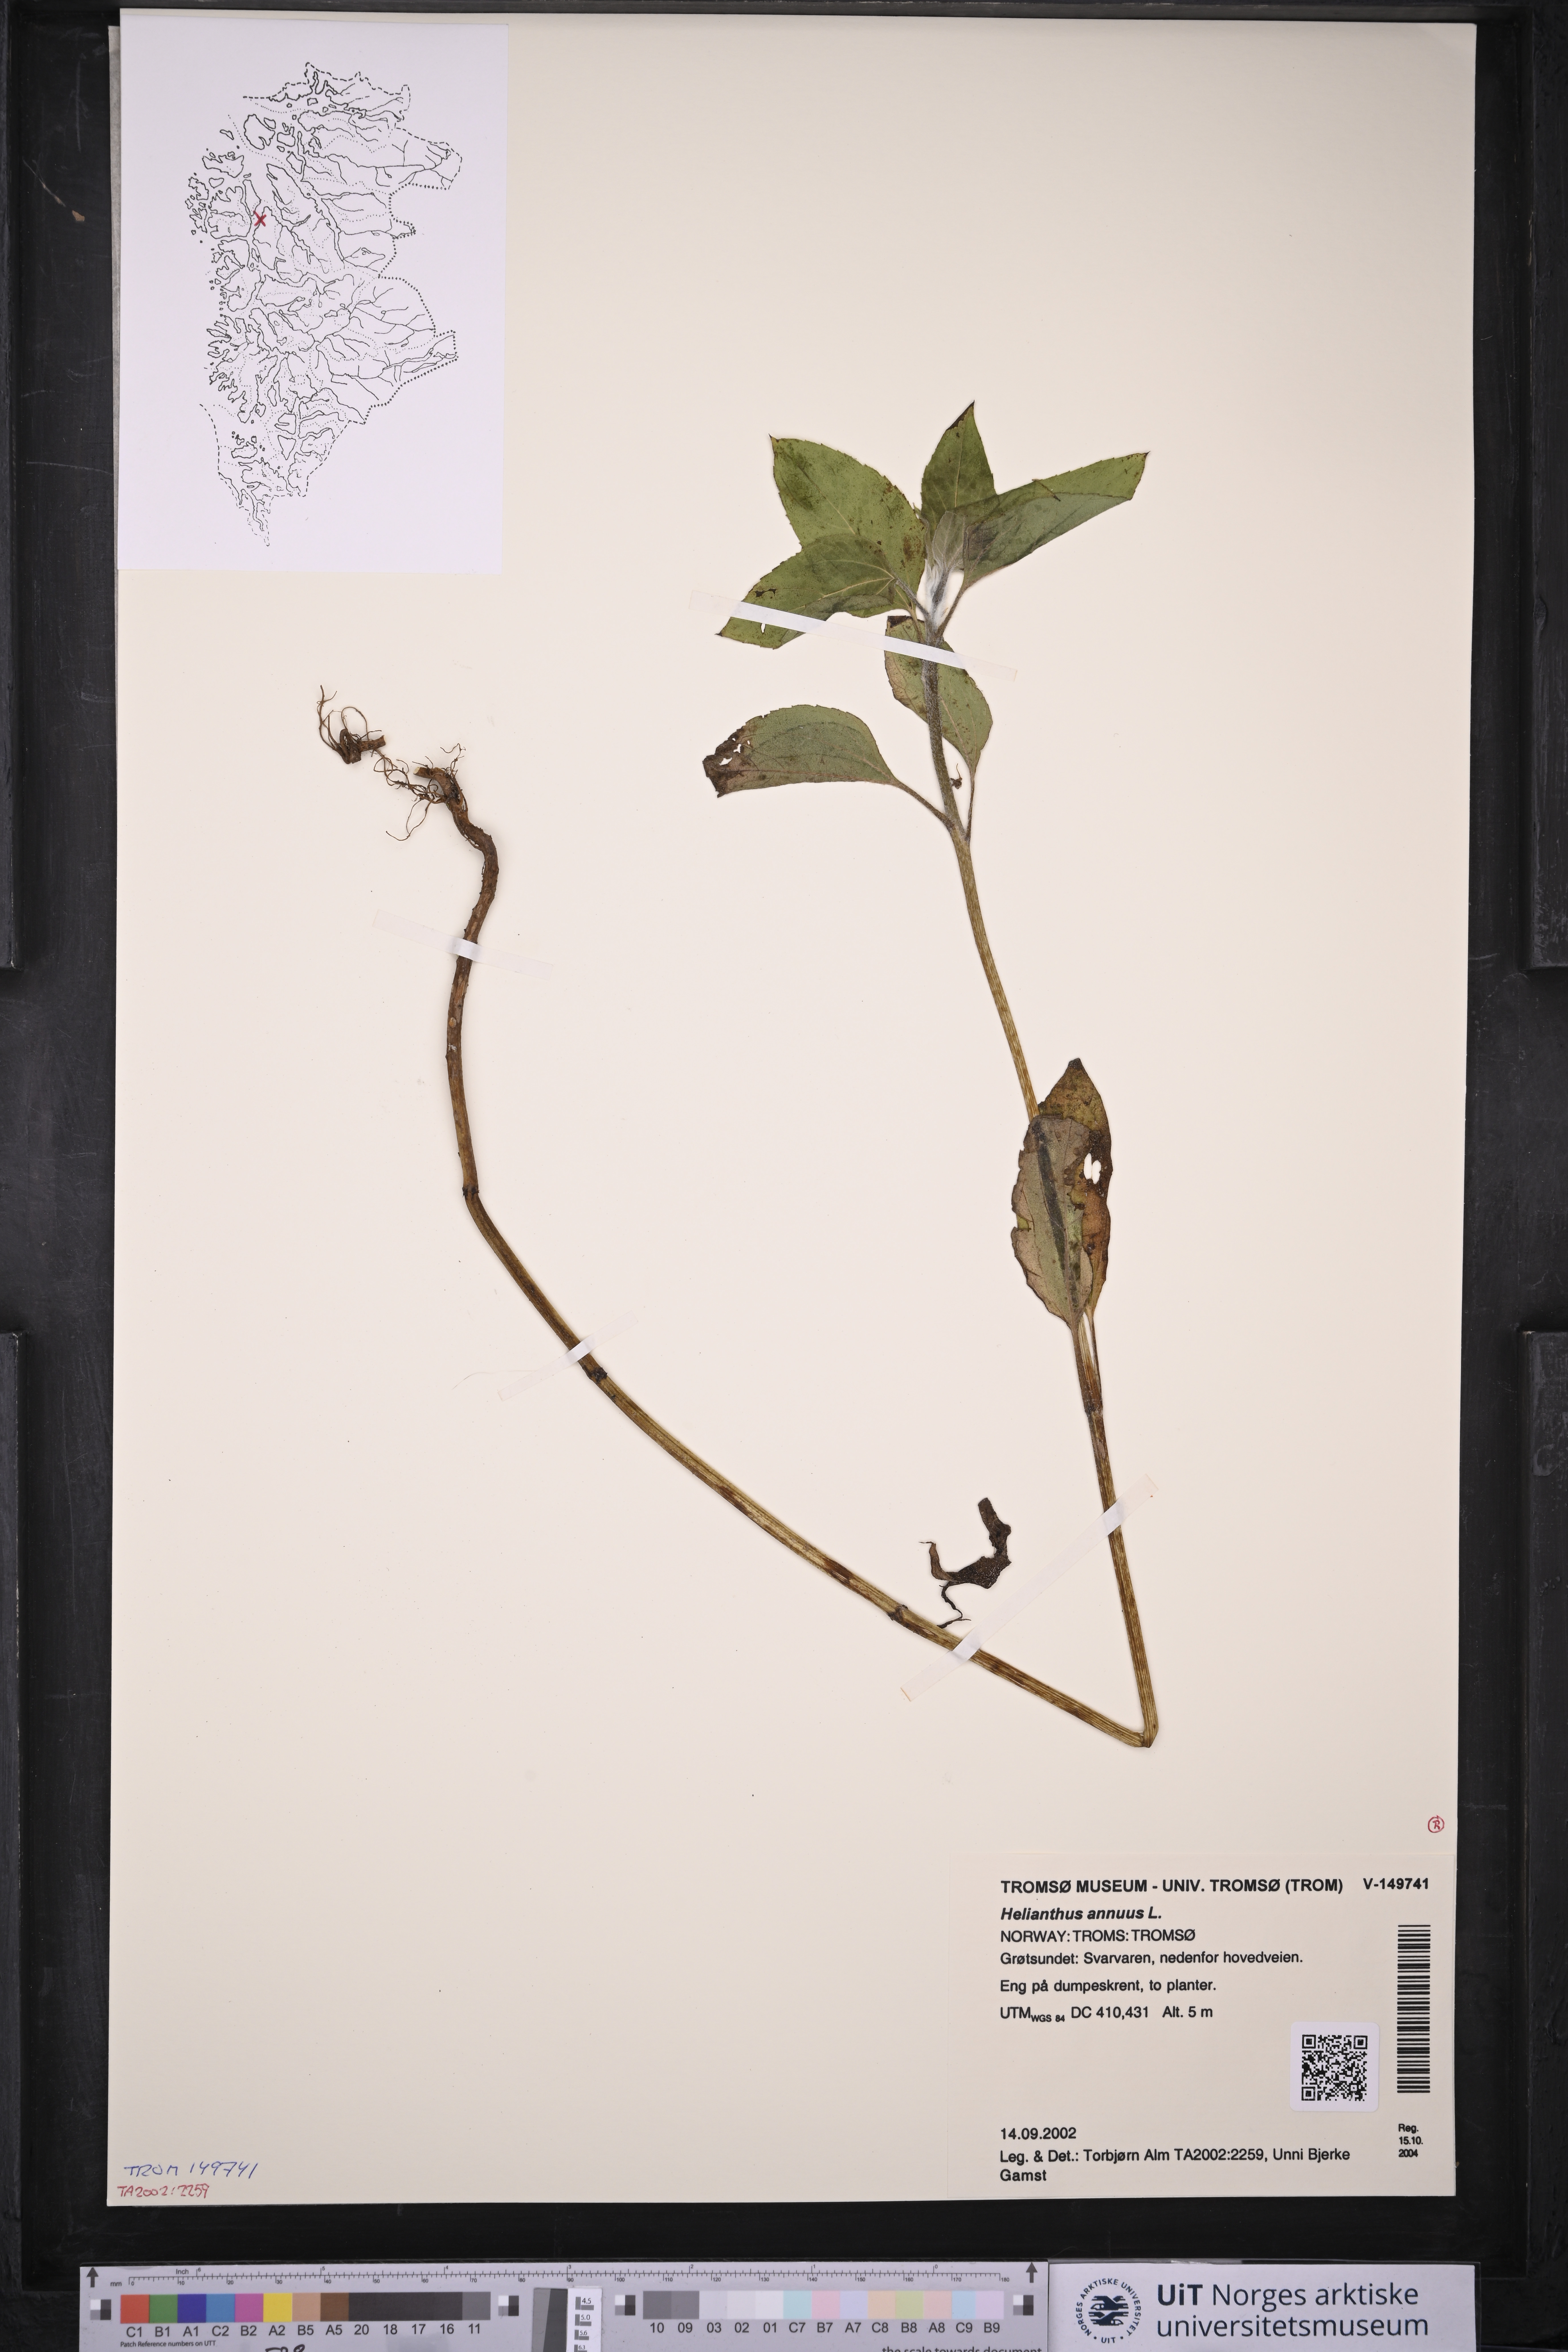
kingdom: Plantae
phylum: Tracheophyta
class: Magnoliopsida
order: Asterales
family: Asteraceae
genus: Helianthus
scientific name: Helianthus annuus
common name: Sunflower
